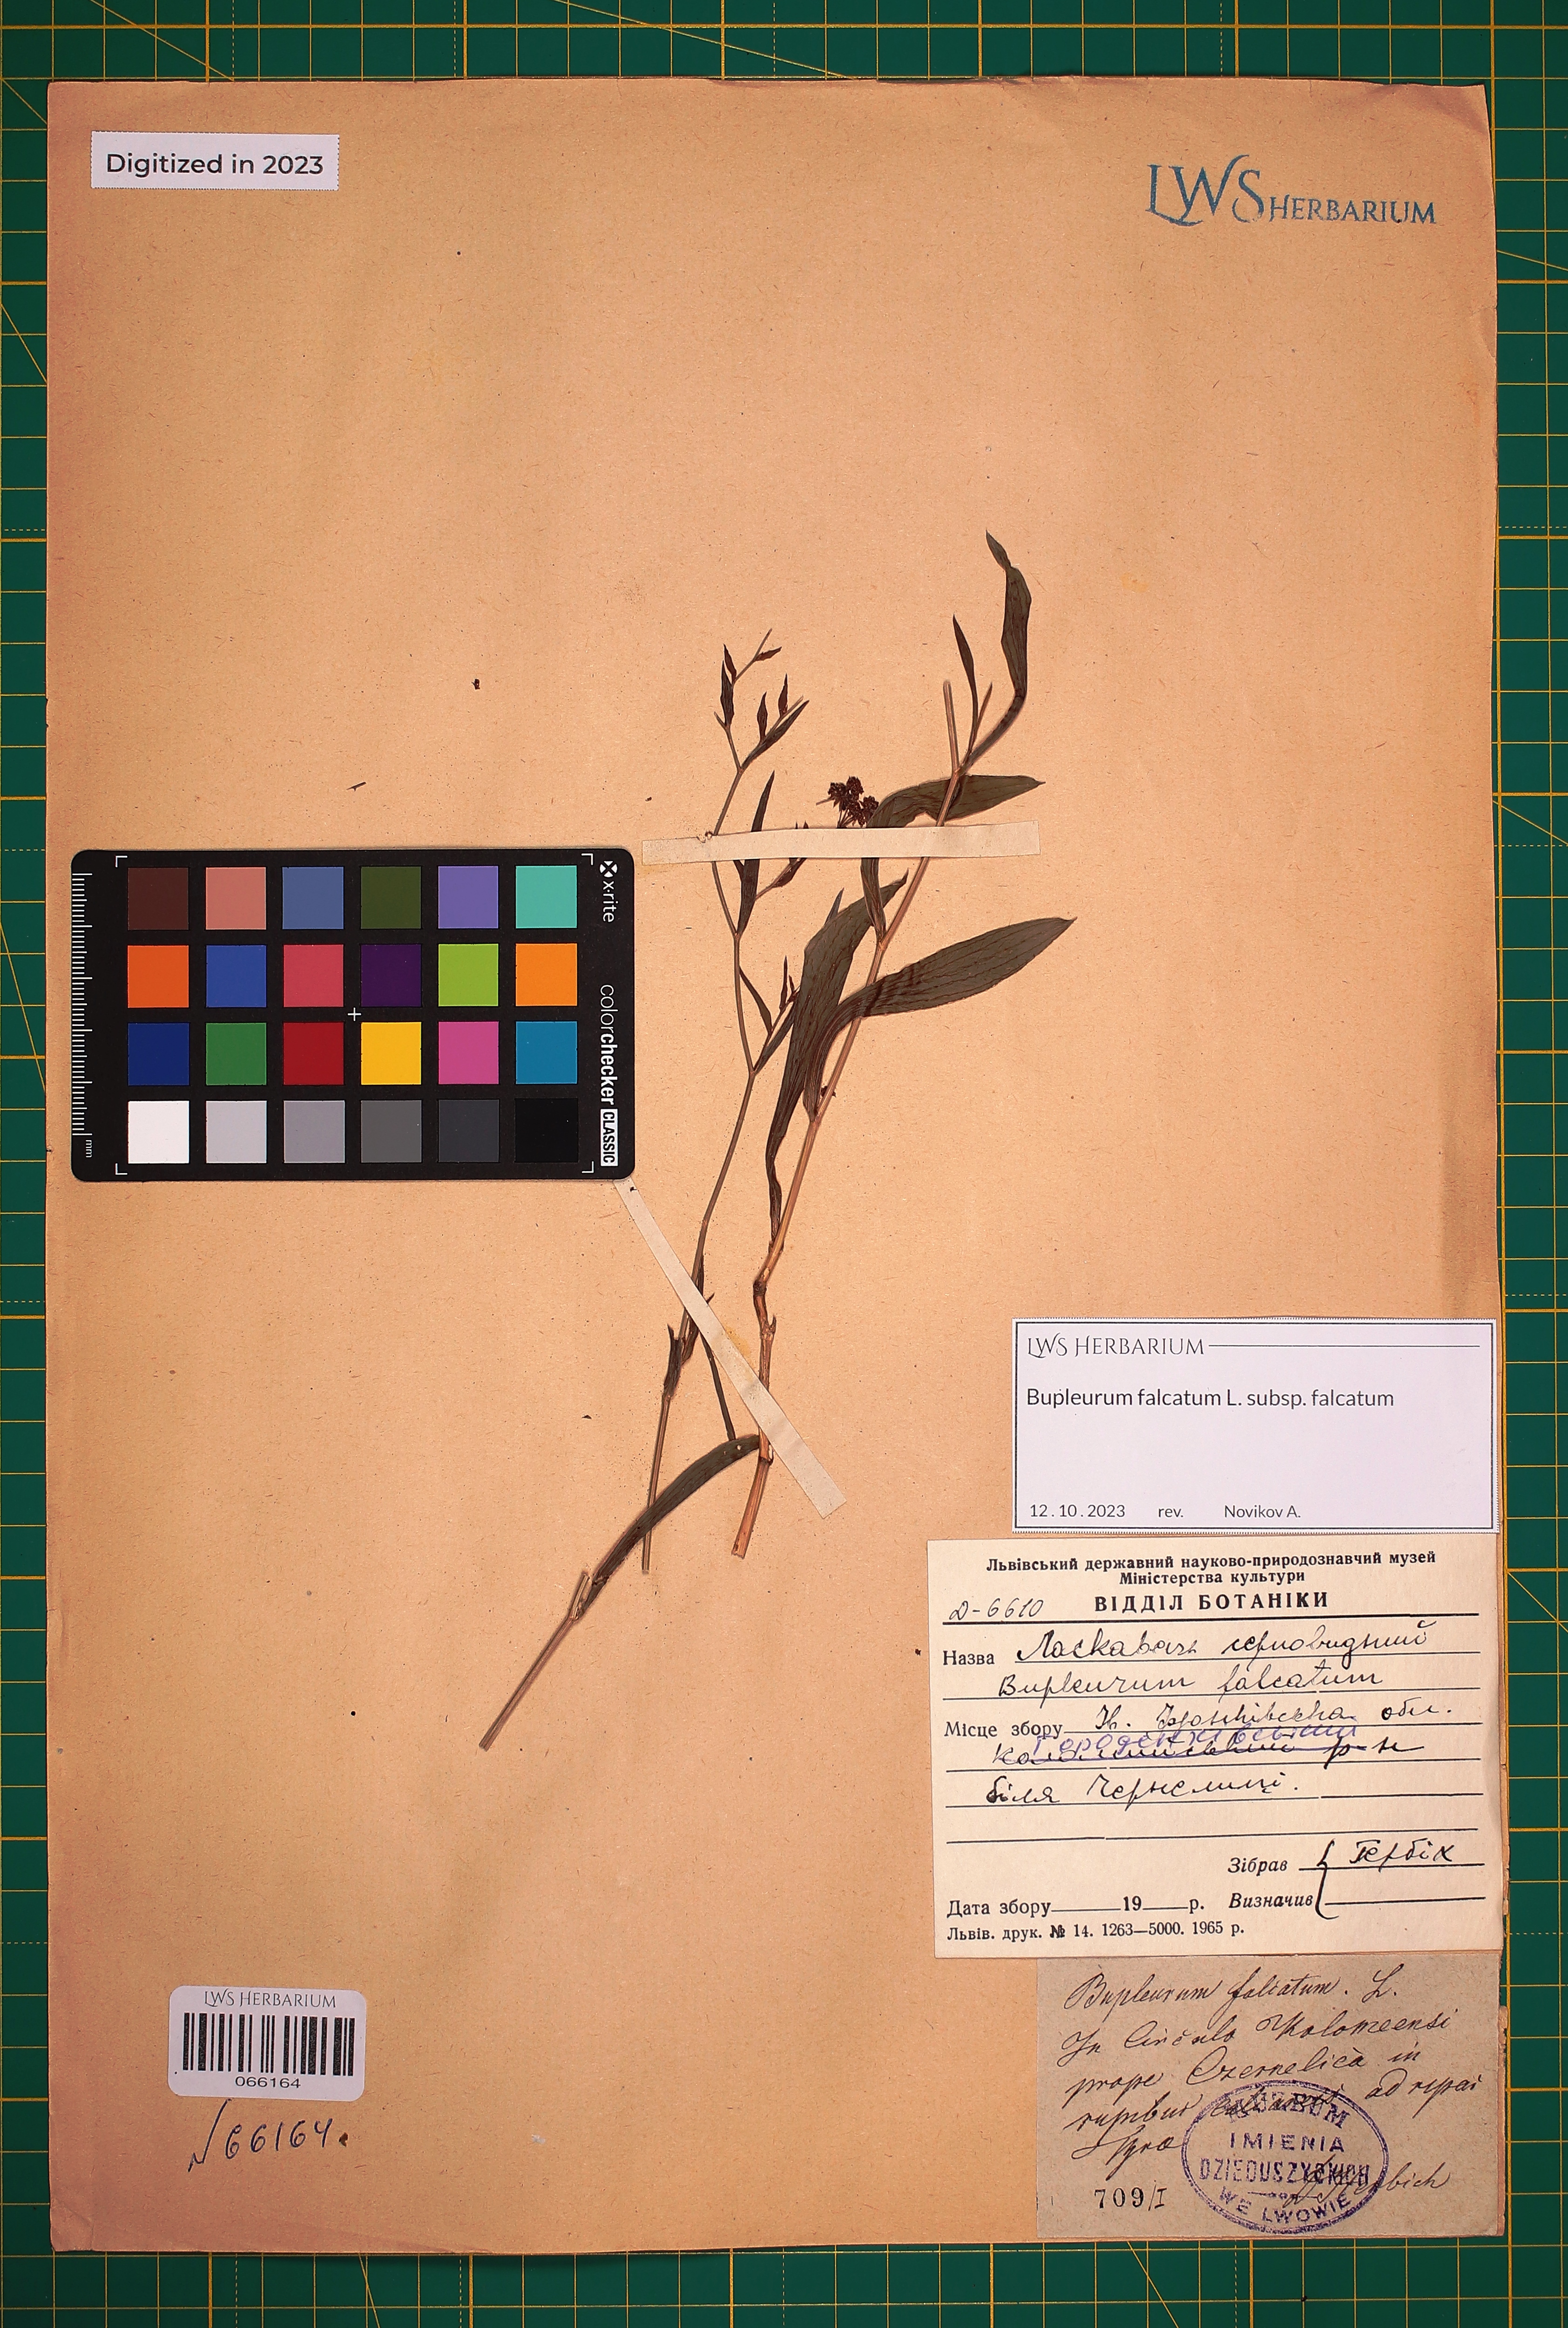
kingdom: Plantae
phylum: Tracheophyta
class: Magnoliopsida
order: Apiales
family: Apiaceae
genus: Bupleurum
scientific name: Bupleurum falcatum
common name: Sickle-leaved hare's-ear
